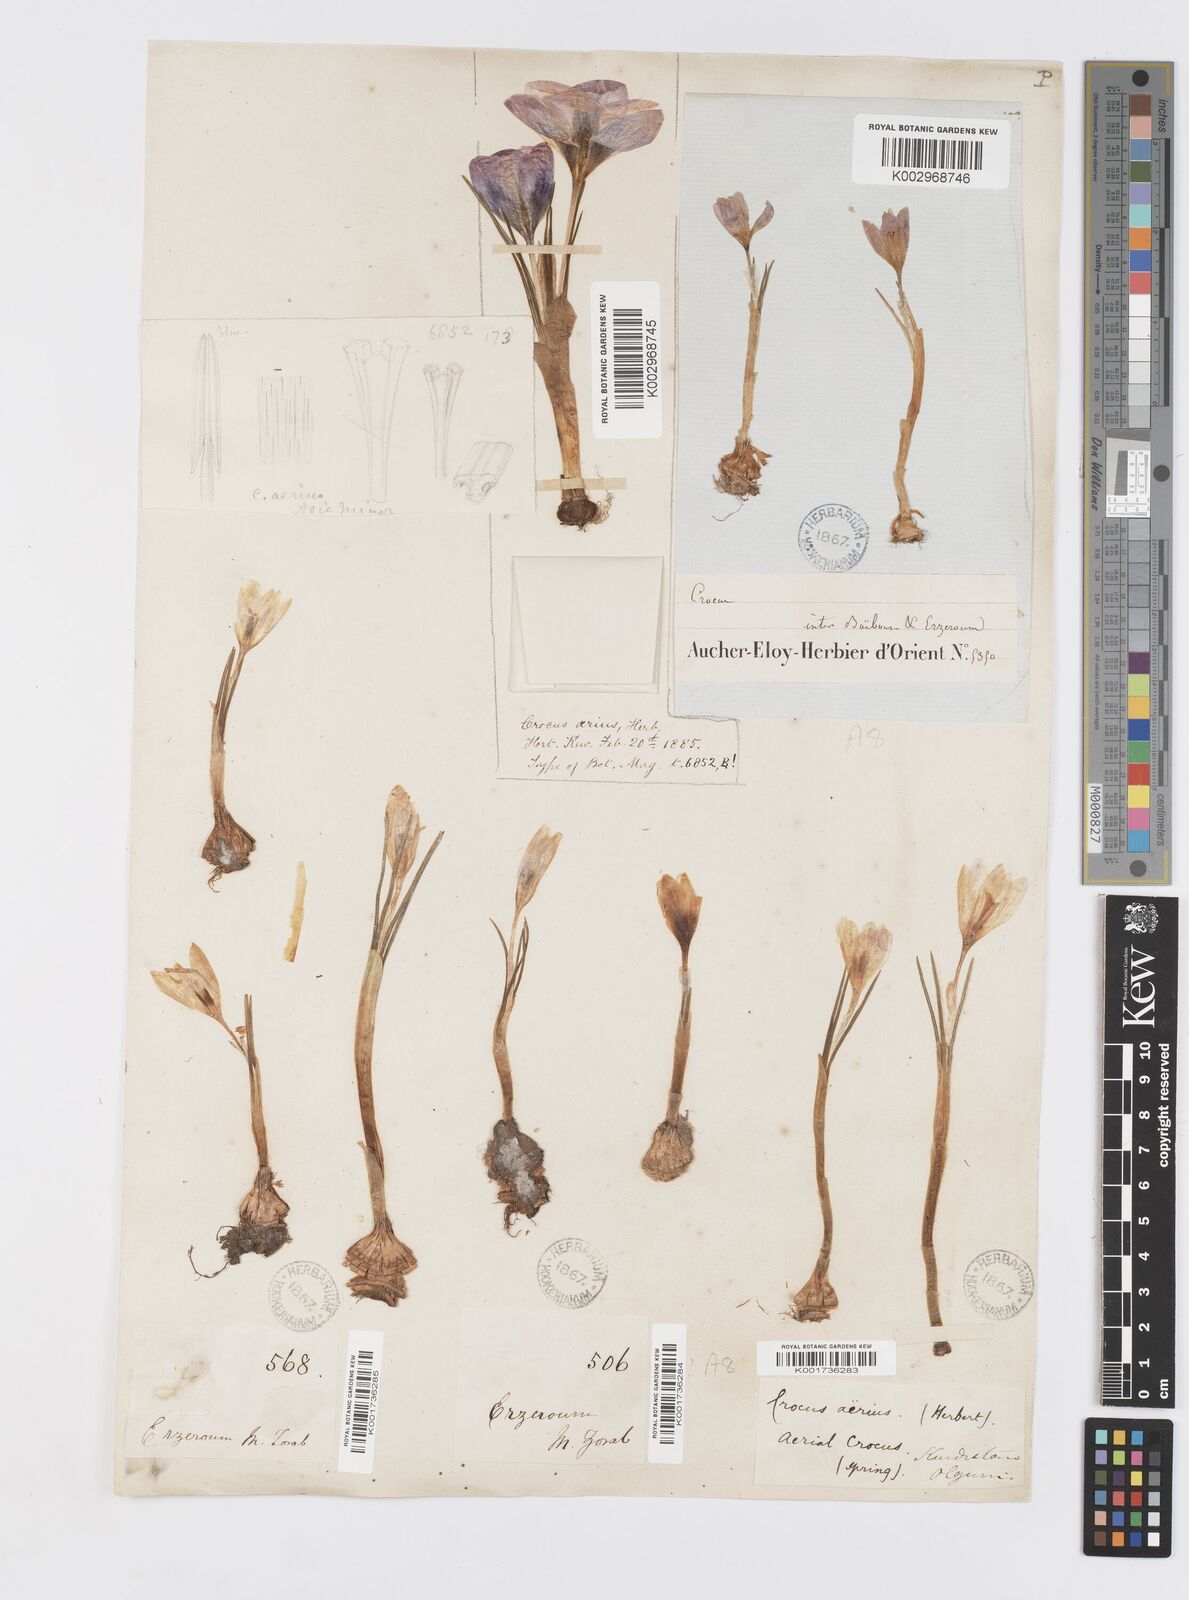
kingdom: Plantae
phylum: Tracheophyta
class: Liliopsida
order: Asparagales
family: Iridaceae
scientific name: Iridaceae
